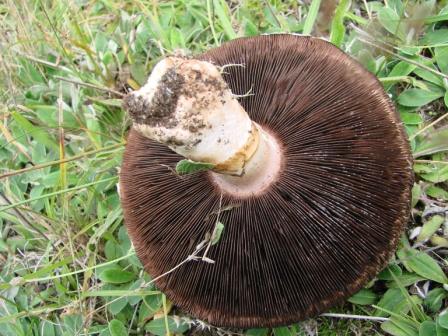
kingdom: Fungi
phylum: Basidiomycota
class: Agaricomycetes
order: Agaricales
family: Agaricaceae
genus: Agaricus
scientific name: Agaricus campestris
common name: mark-champignon
